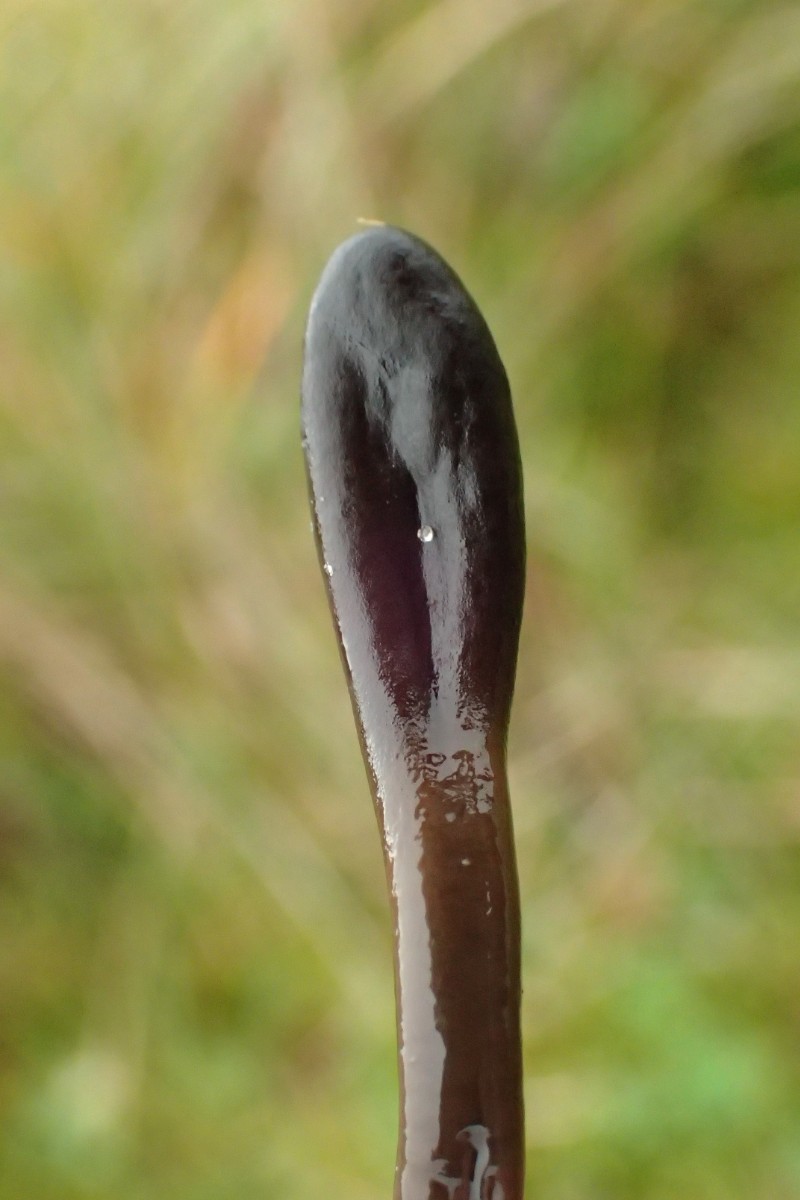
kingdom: Fungi
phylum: Ascomycota
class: Geoglossomycetes
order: Geoglossales
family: Geoglossaceae
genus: Glutinoglossum
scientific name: Glutinoglossum glutinosum
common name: slimet jordtunge
